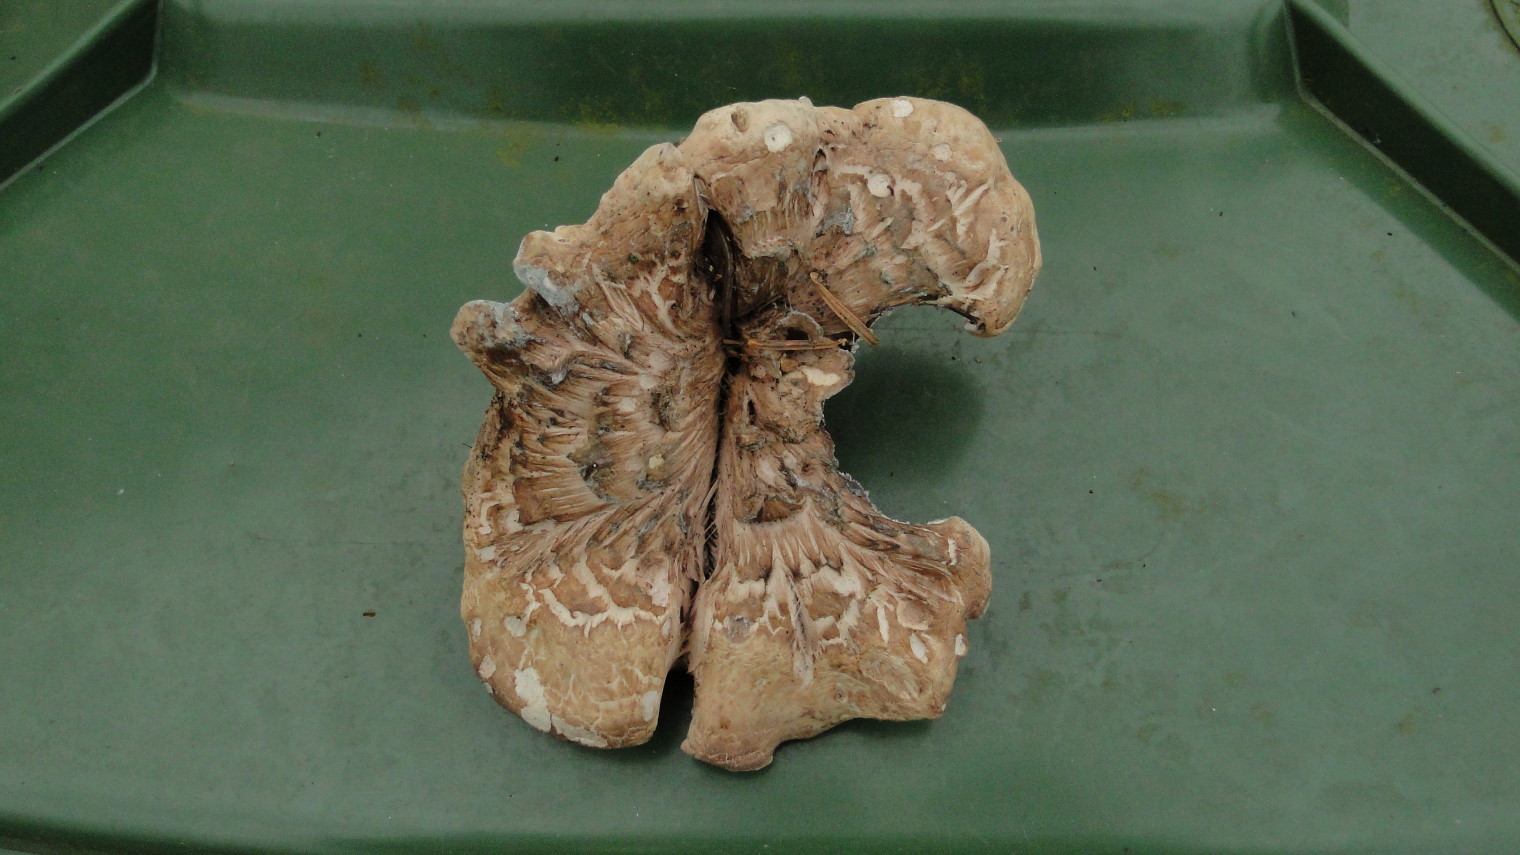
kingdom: Fungi
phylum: Basidiomycota
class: Agaricomycetes
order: Thelephorales
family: Bankeraceae
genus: Sarcodon
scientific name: Sarcodon imbricatus
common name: skællet kødpigsvamp
